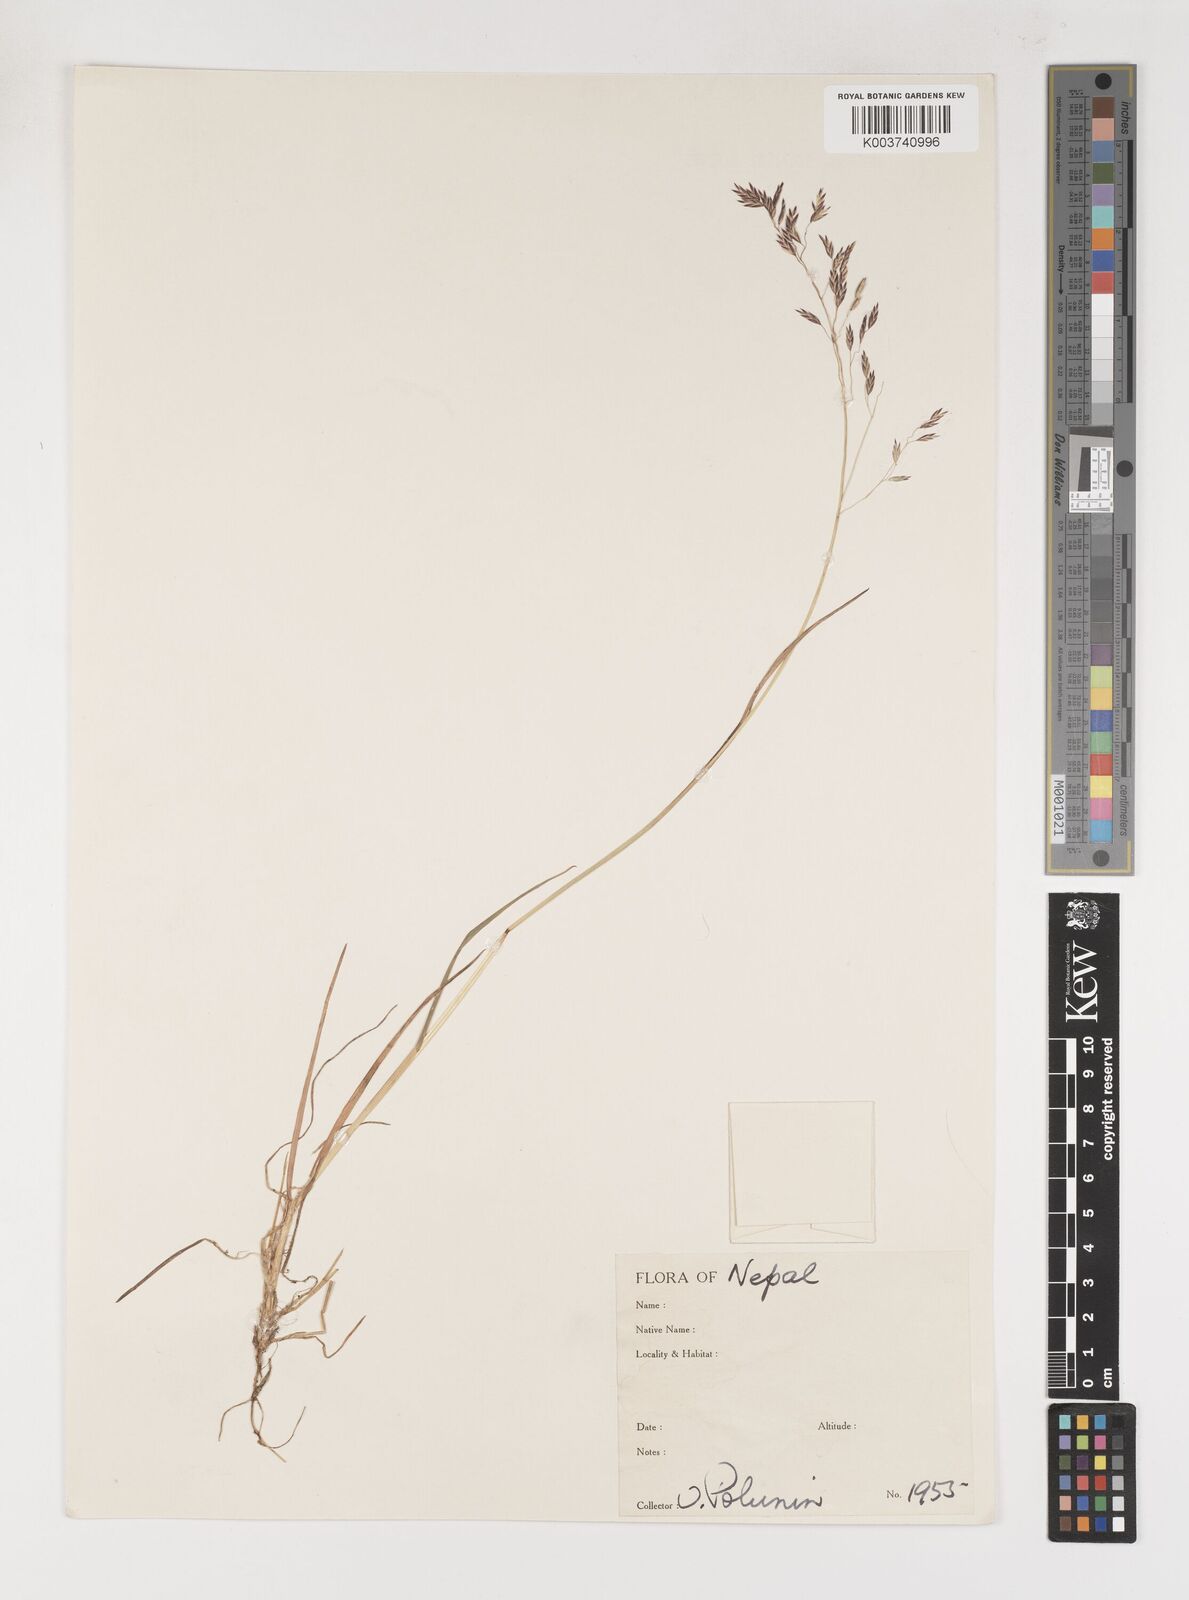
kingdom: Plantae
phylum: Tracheophyta
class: Liliopsida
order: Poales
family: Poaceae
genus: Poa
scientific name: Poa mairei
